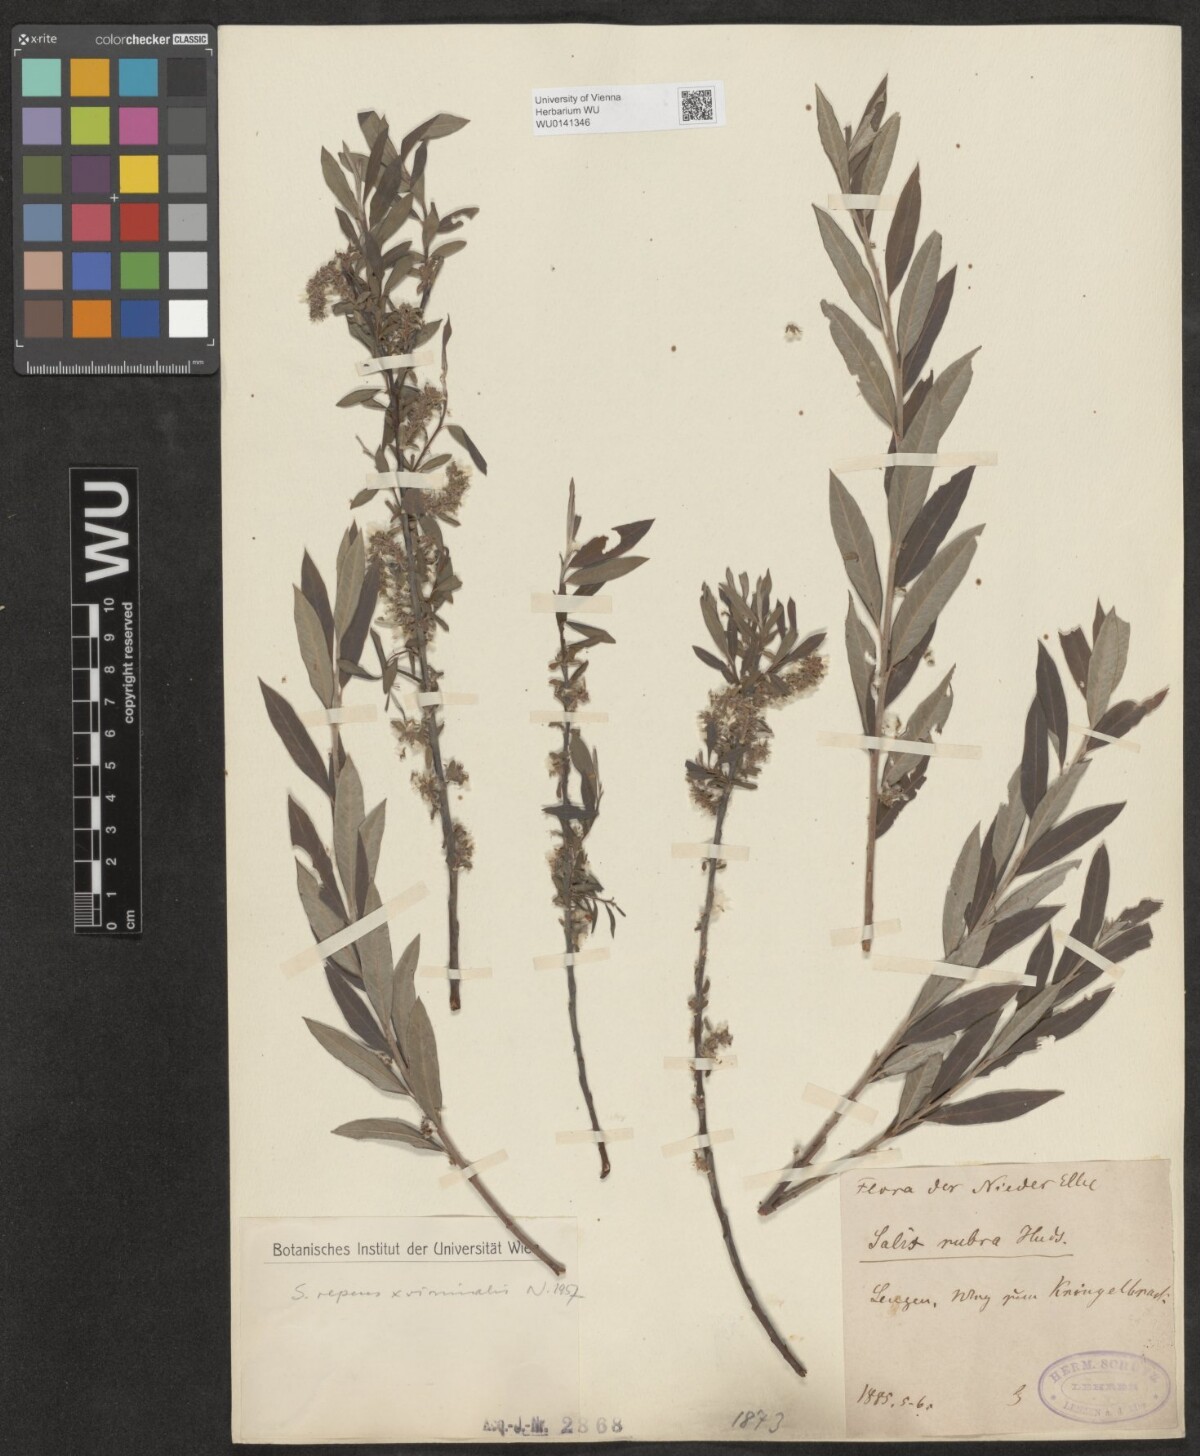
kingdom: Plantae
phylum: Tracheophyta
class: Magnoliopsida
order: Malpighiales
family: Salicaceae
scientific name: Salicaceae
